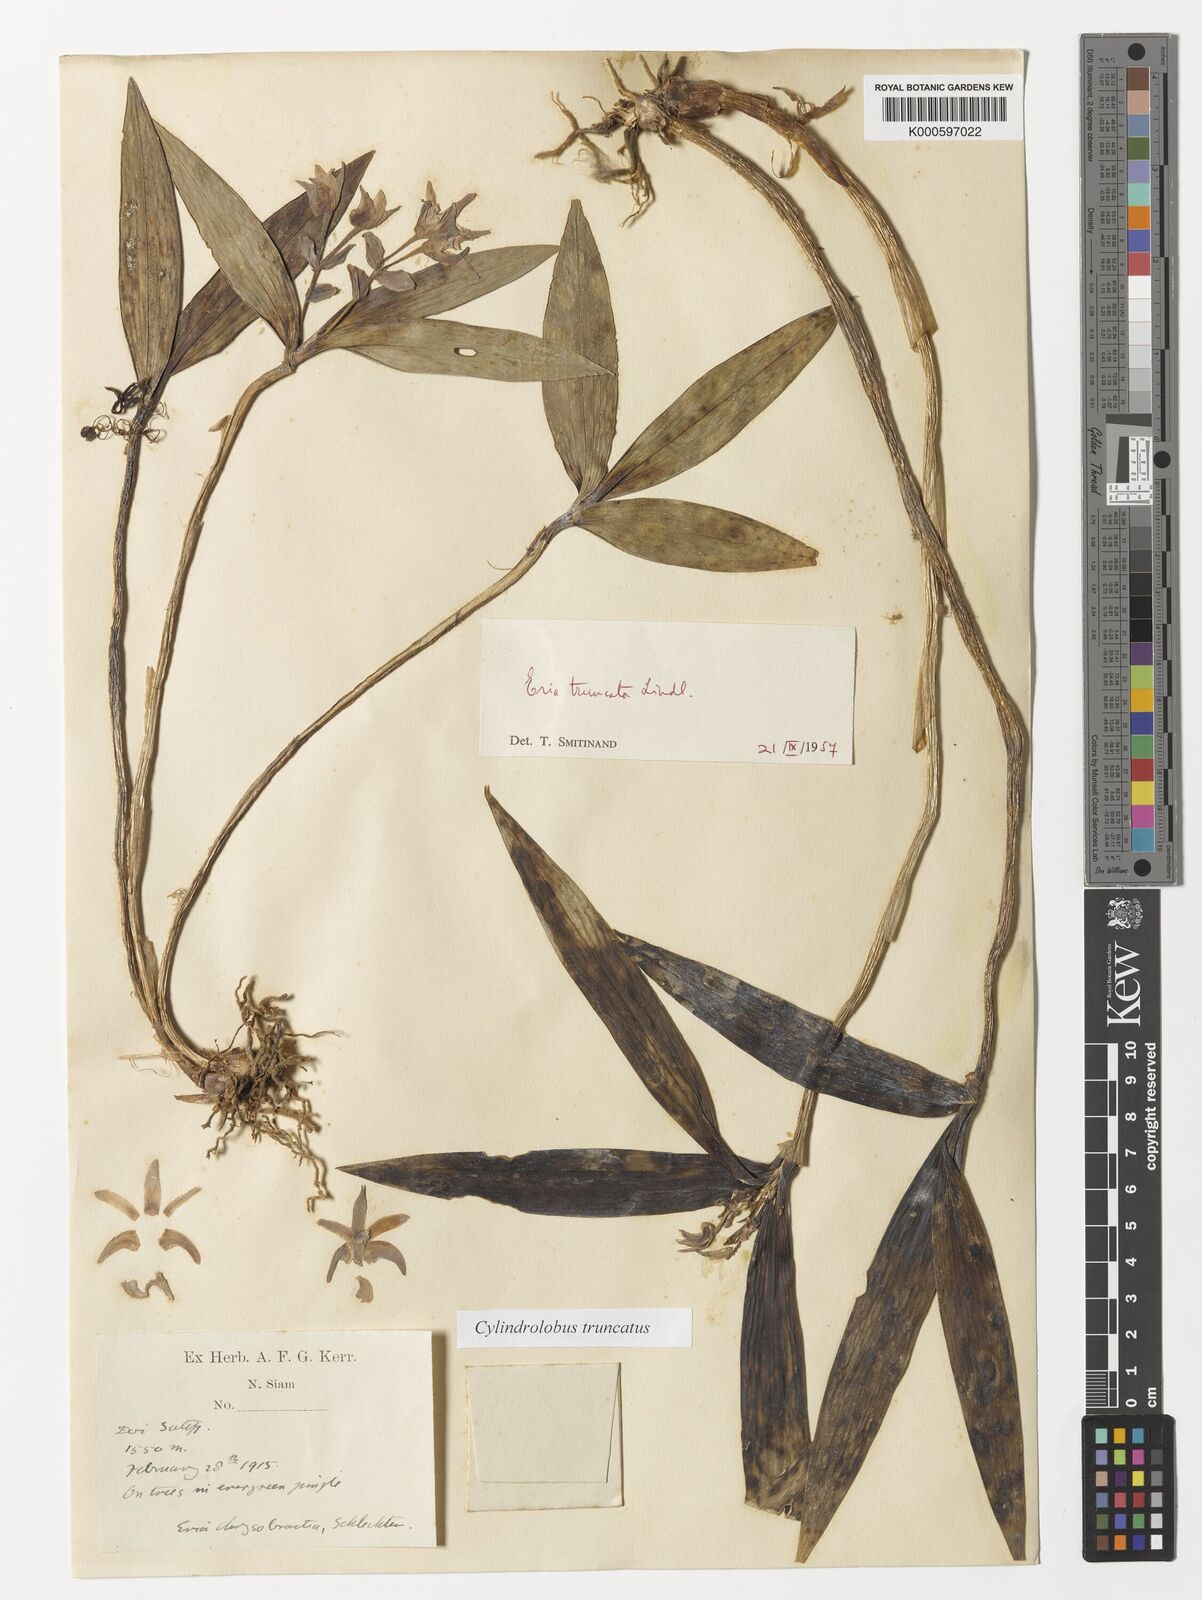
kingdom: Plantae
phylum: Tracheophyta
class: Liliopsida
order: Asparagales
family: Orchidaceae
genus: Cylindrolobus
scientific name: Cylindrolobus truncatus
